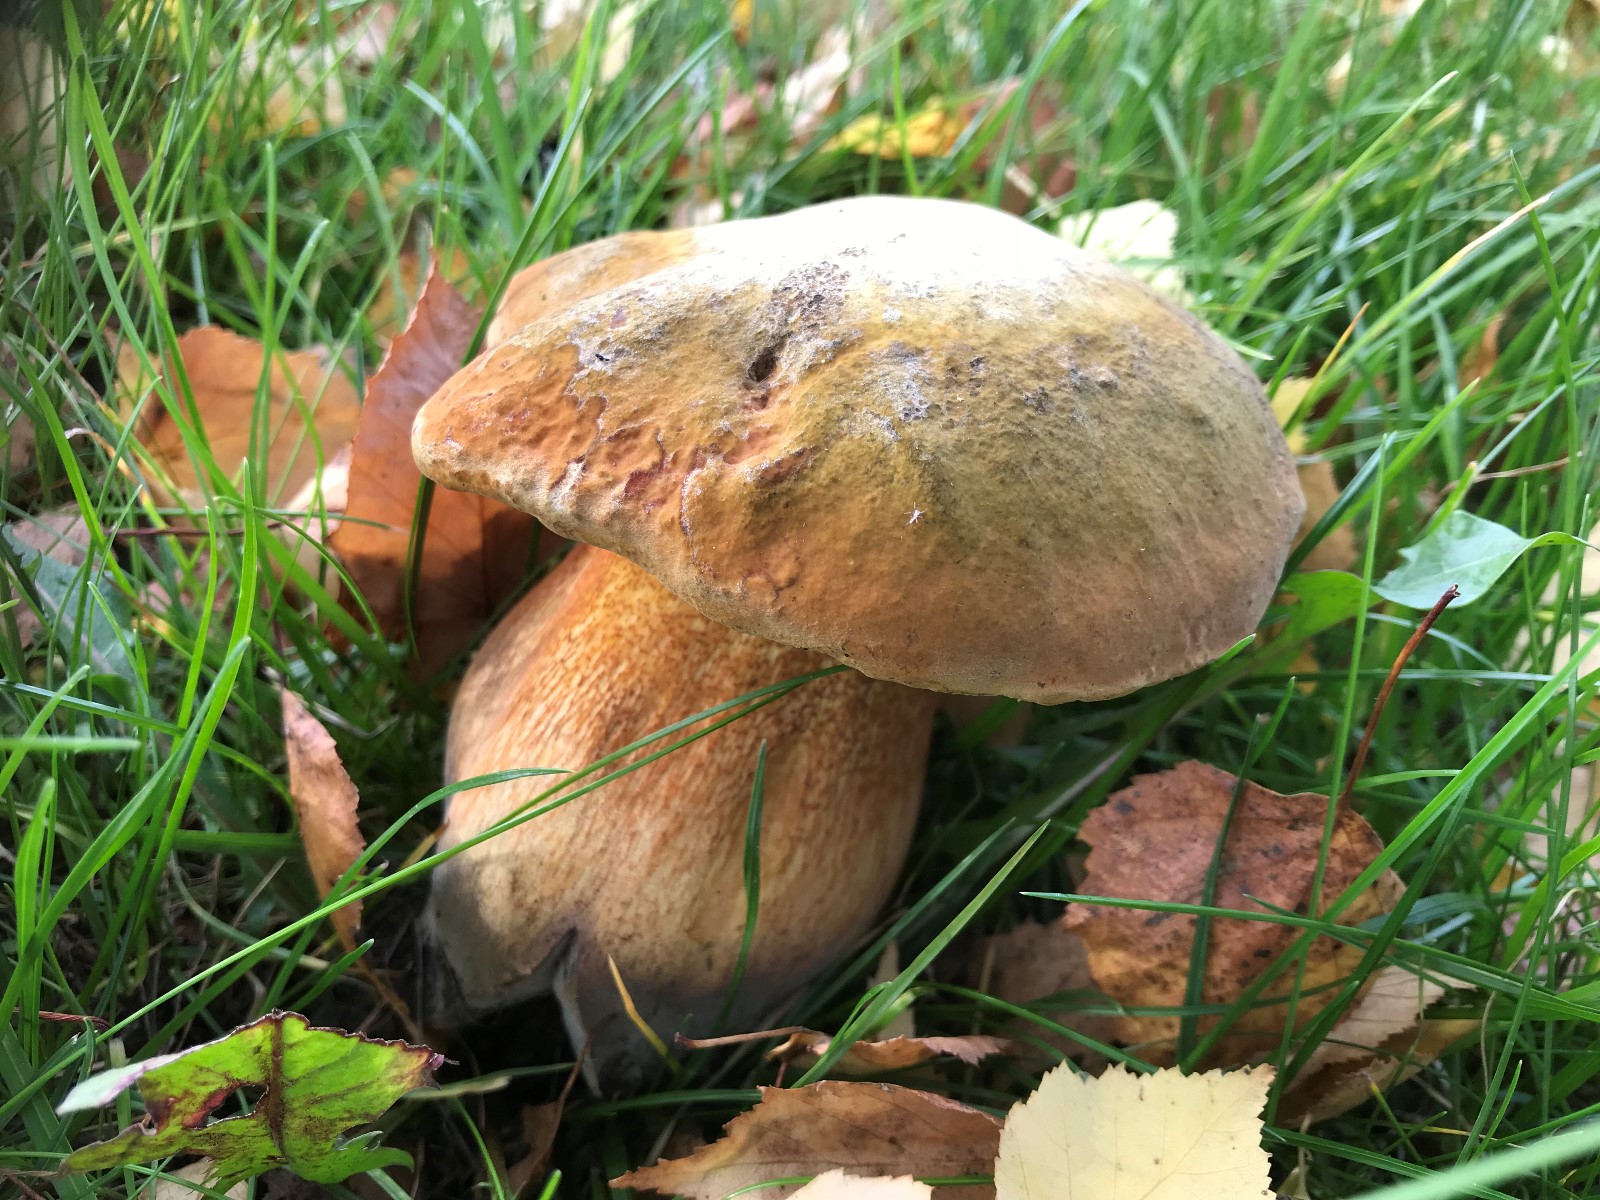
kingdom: Fungi
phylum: Basidiomycota
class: Agaricomycetes
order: Boletales
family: Boletaceae
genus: Suillellus
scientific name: Suillellus luridus
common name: netstokket indigorørhat
